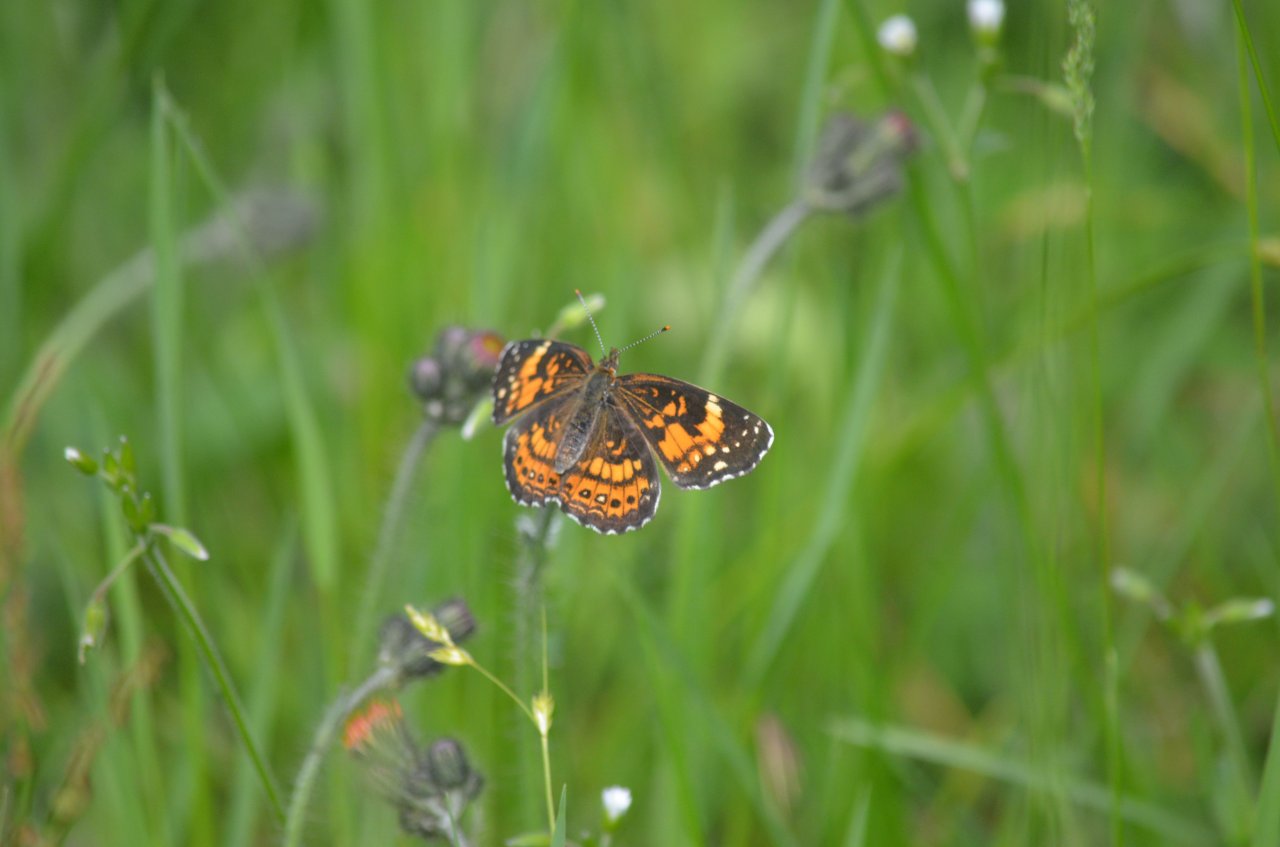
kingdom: Animalia
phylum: Arthropoda
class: Insecta
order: Lepidoptera
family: Nymphalidae
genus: Chlosyne
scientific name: Chlosyne nycteis
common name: Silvery Checkerspot
